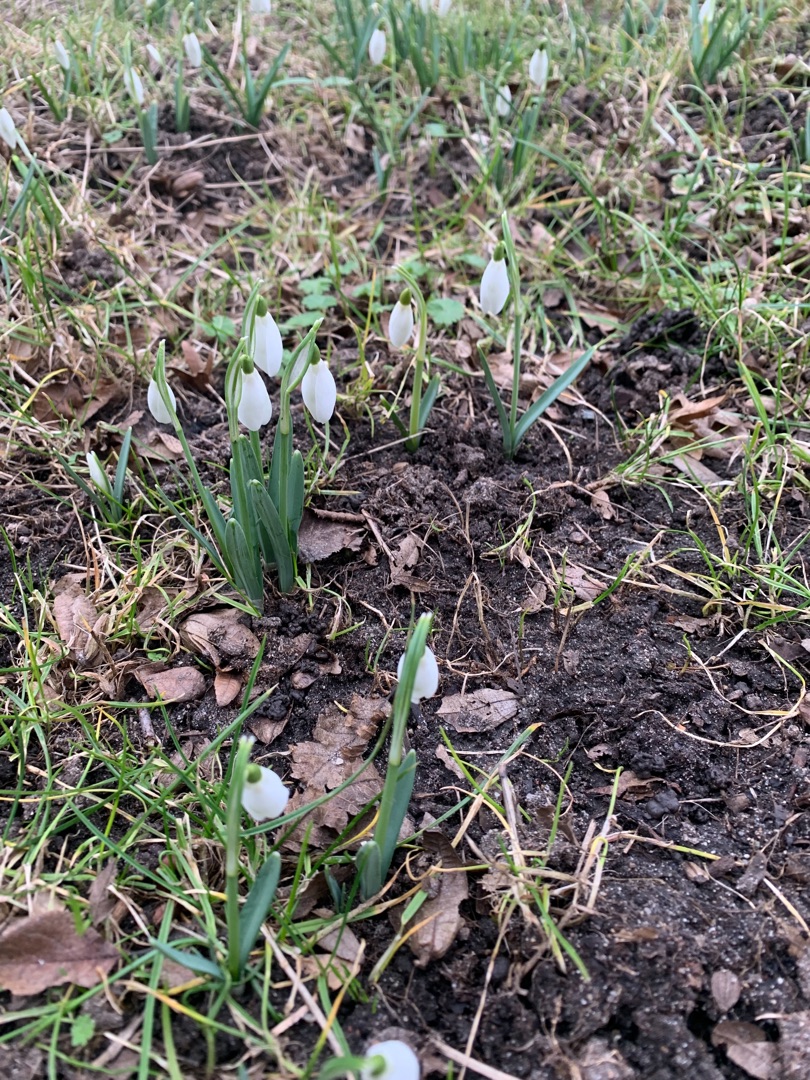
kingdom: Plantae
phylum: Tracheophyta
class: Liliopsida
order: Asparagales
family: Amaryllidaceae
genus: Galanthus
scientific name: Galanthus nivalis
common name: Vintergæk
